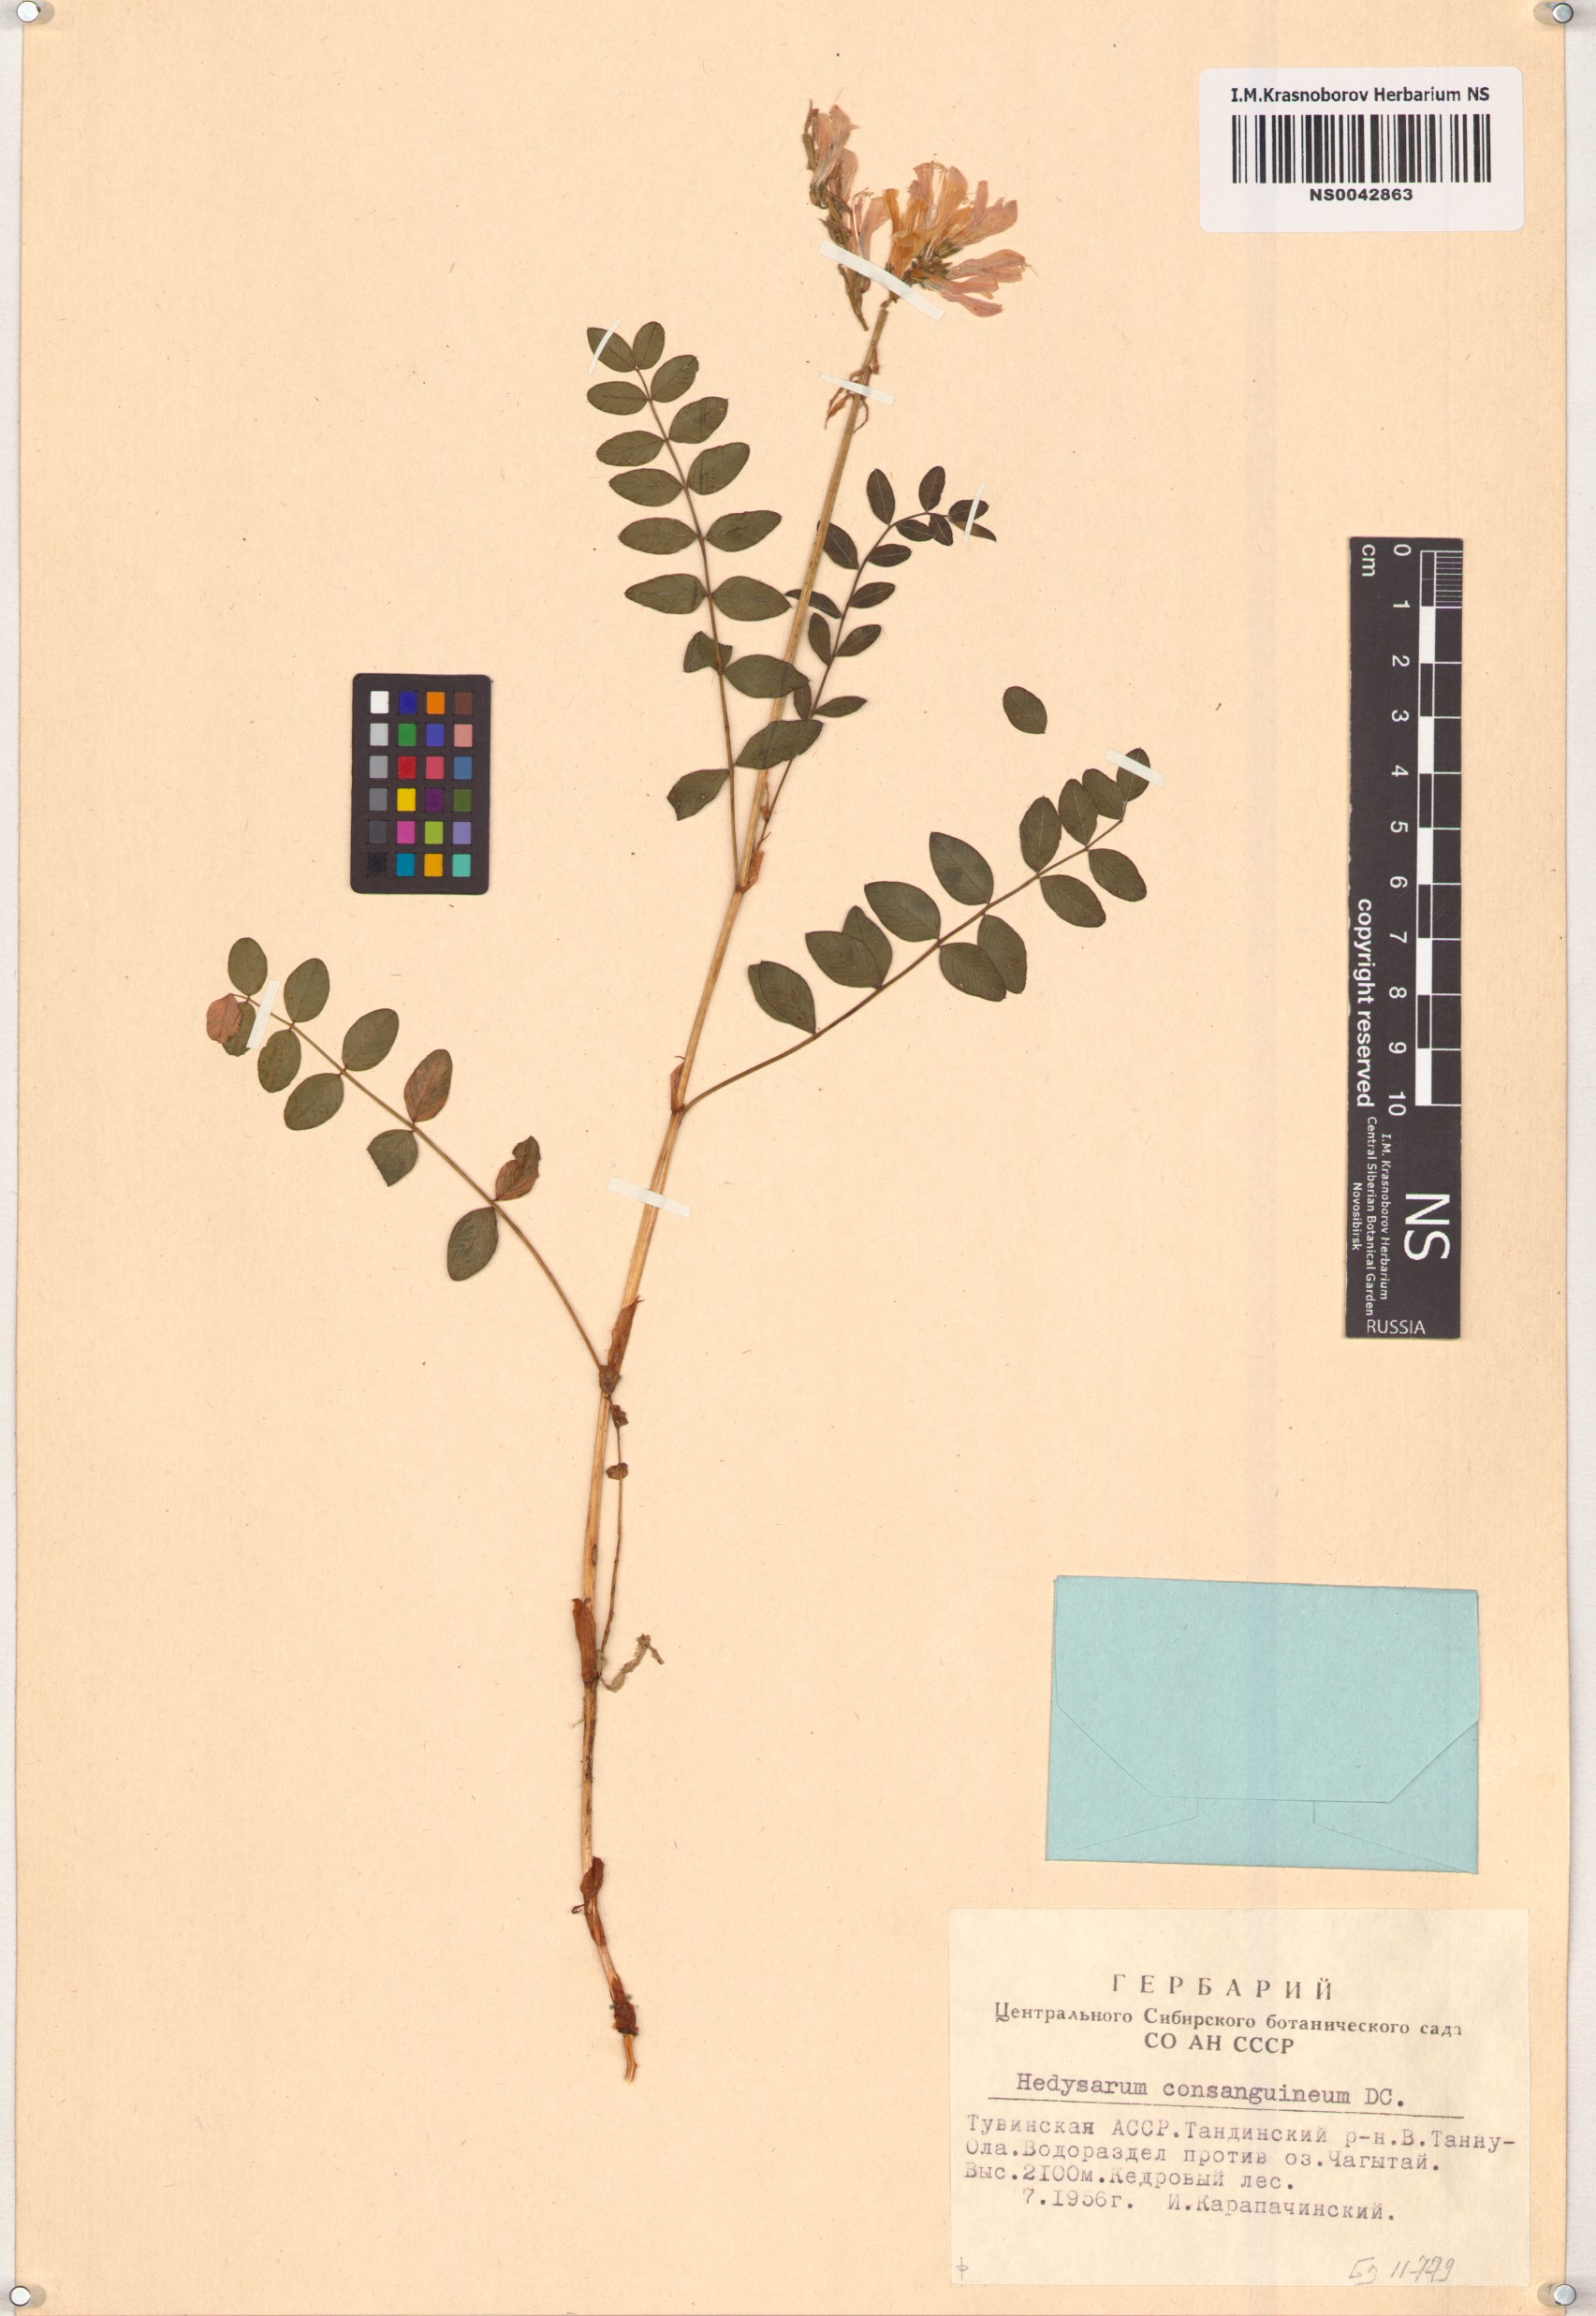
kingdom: Plantae
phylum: Tracheophyta
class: Magnoliopsida
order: Fabales
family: Fabaceae
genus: Hedysarum
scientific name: Hedysarum consanguineum
